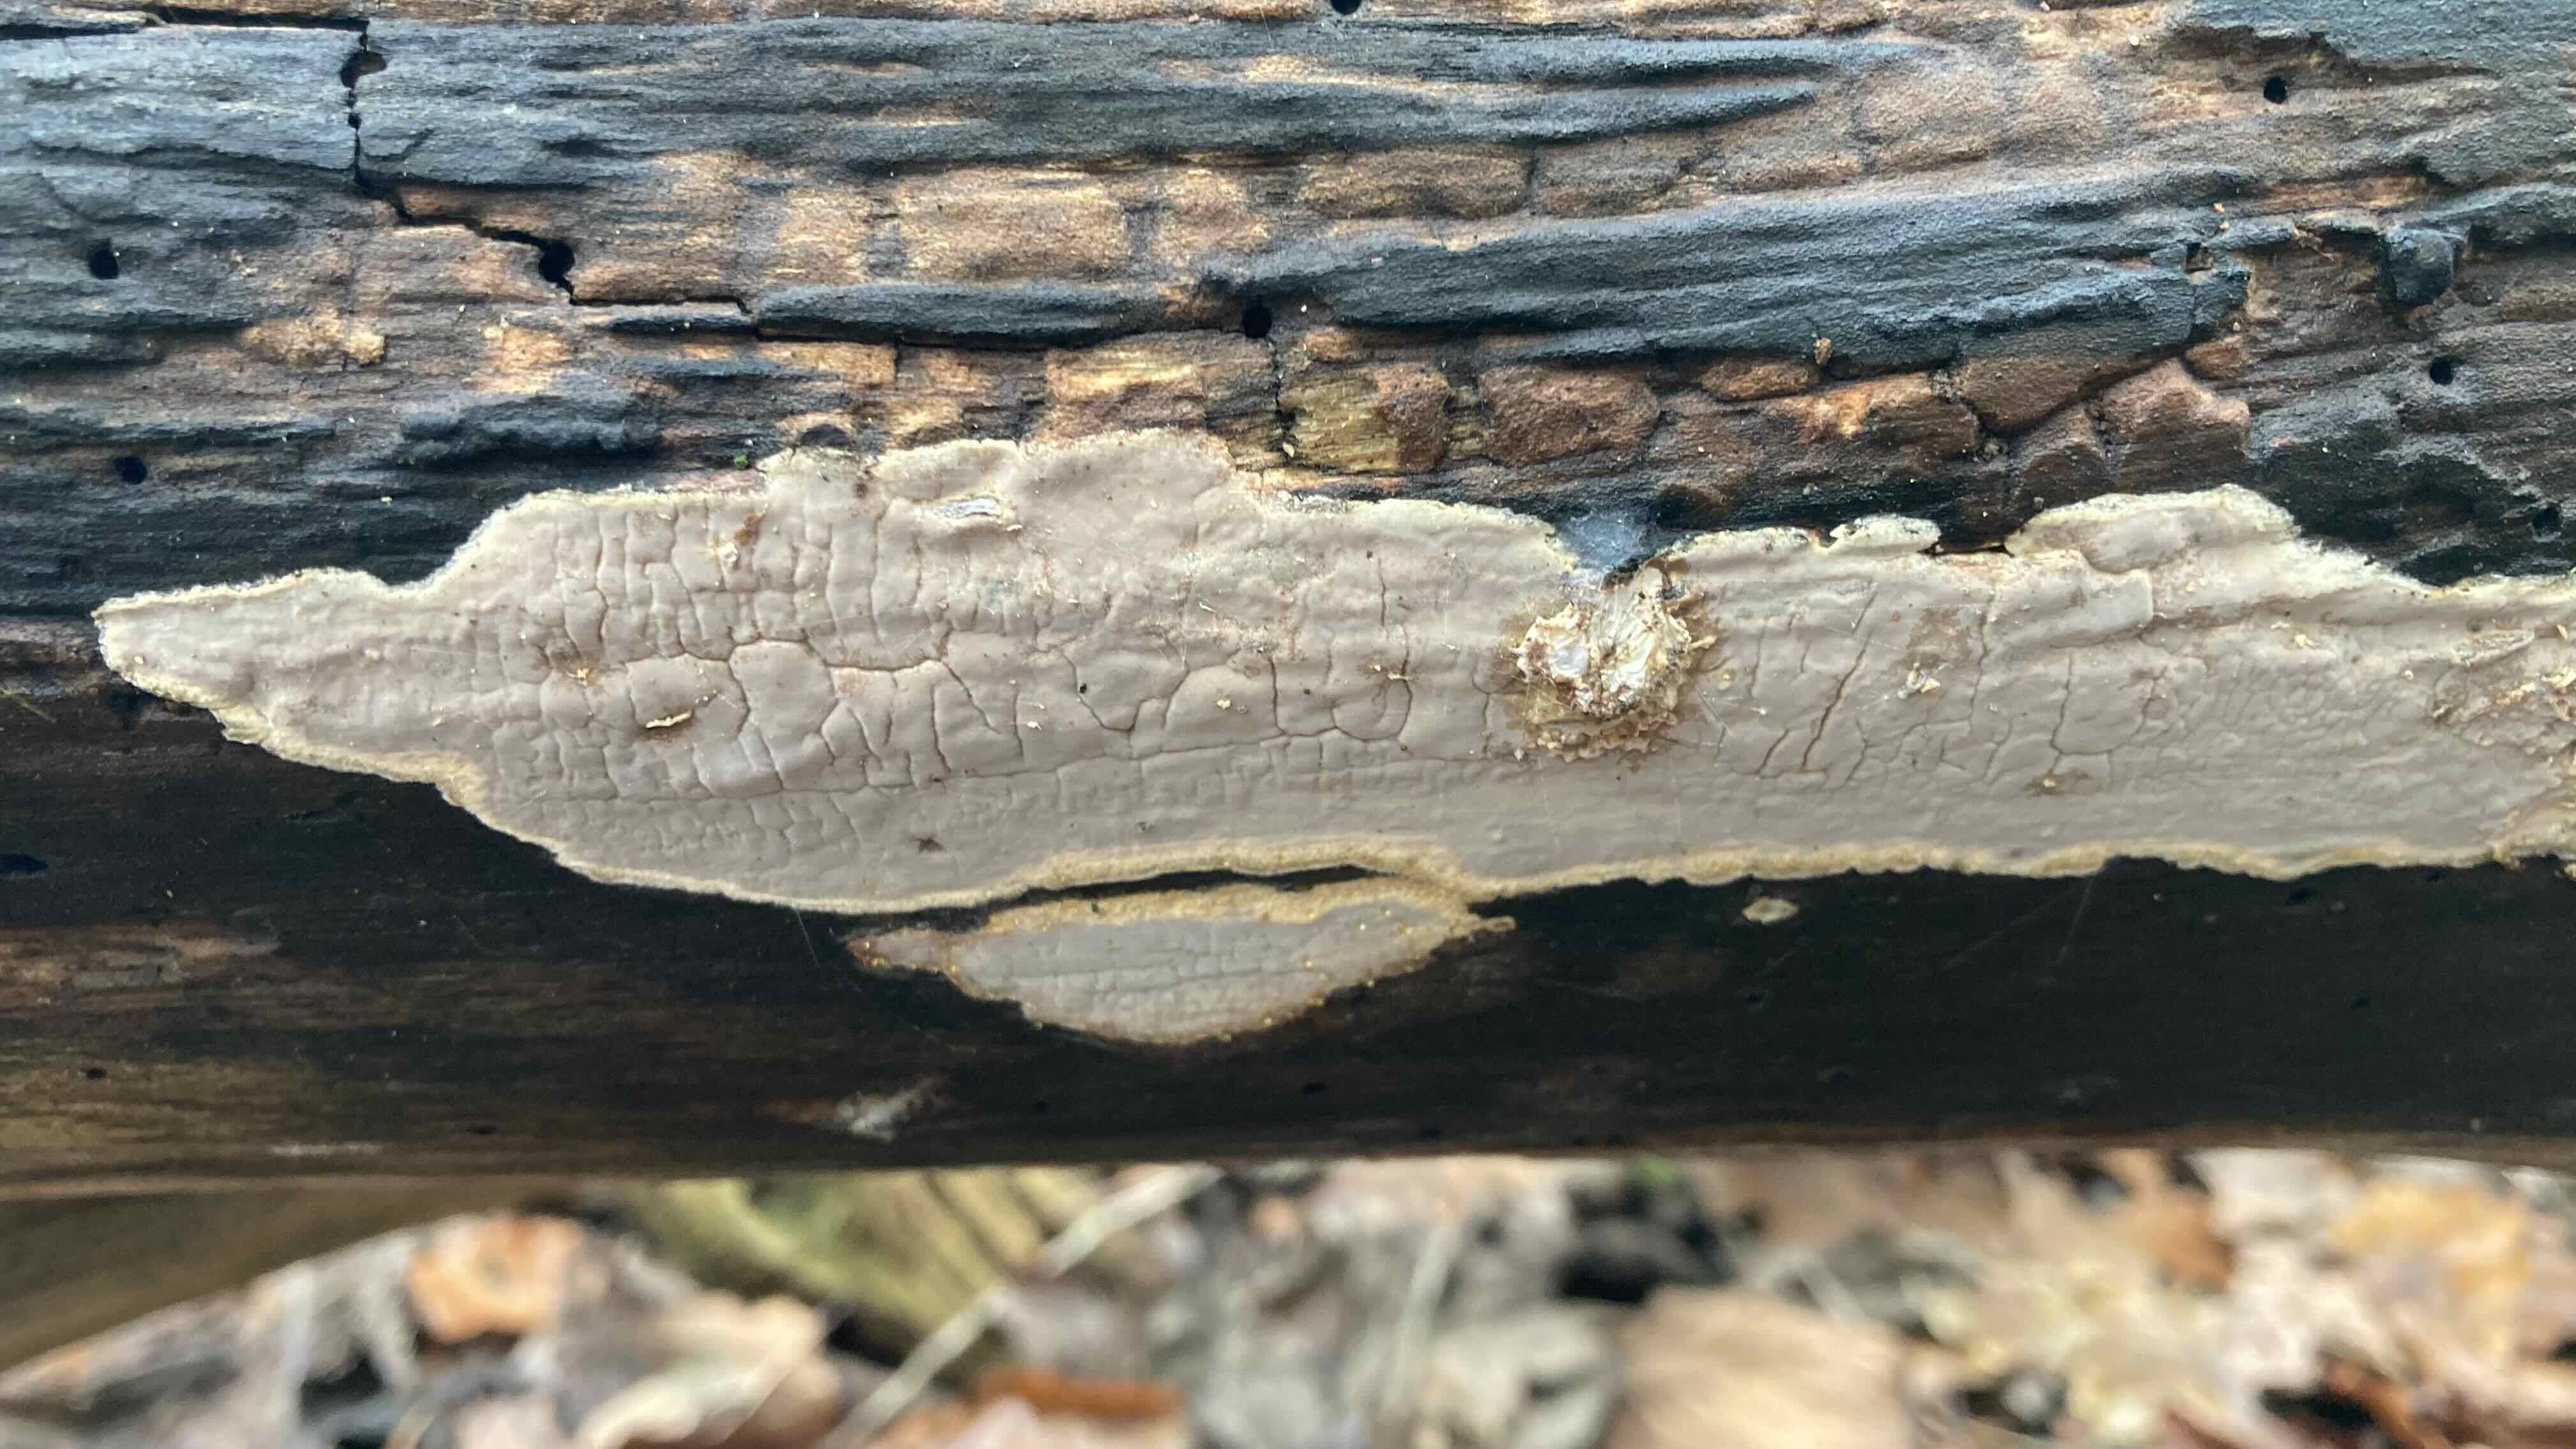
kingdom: Fungi
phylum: Basidiomycota
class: Agaricomycetes
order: Russulales
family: Peniophoraceae
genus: Scytinostroma
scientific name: Scytinostroma hemidichophyticum
